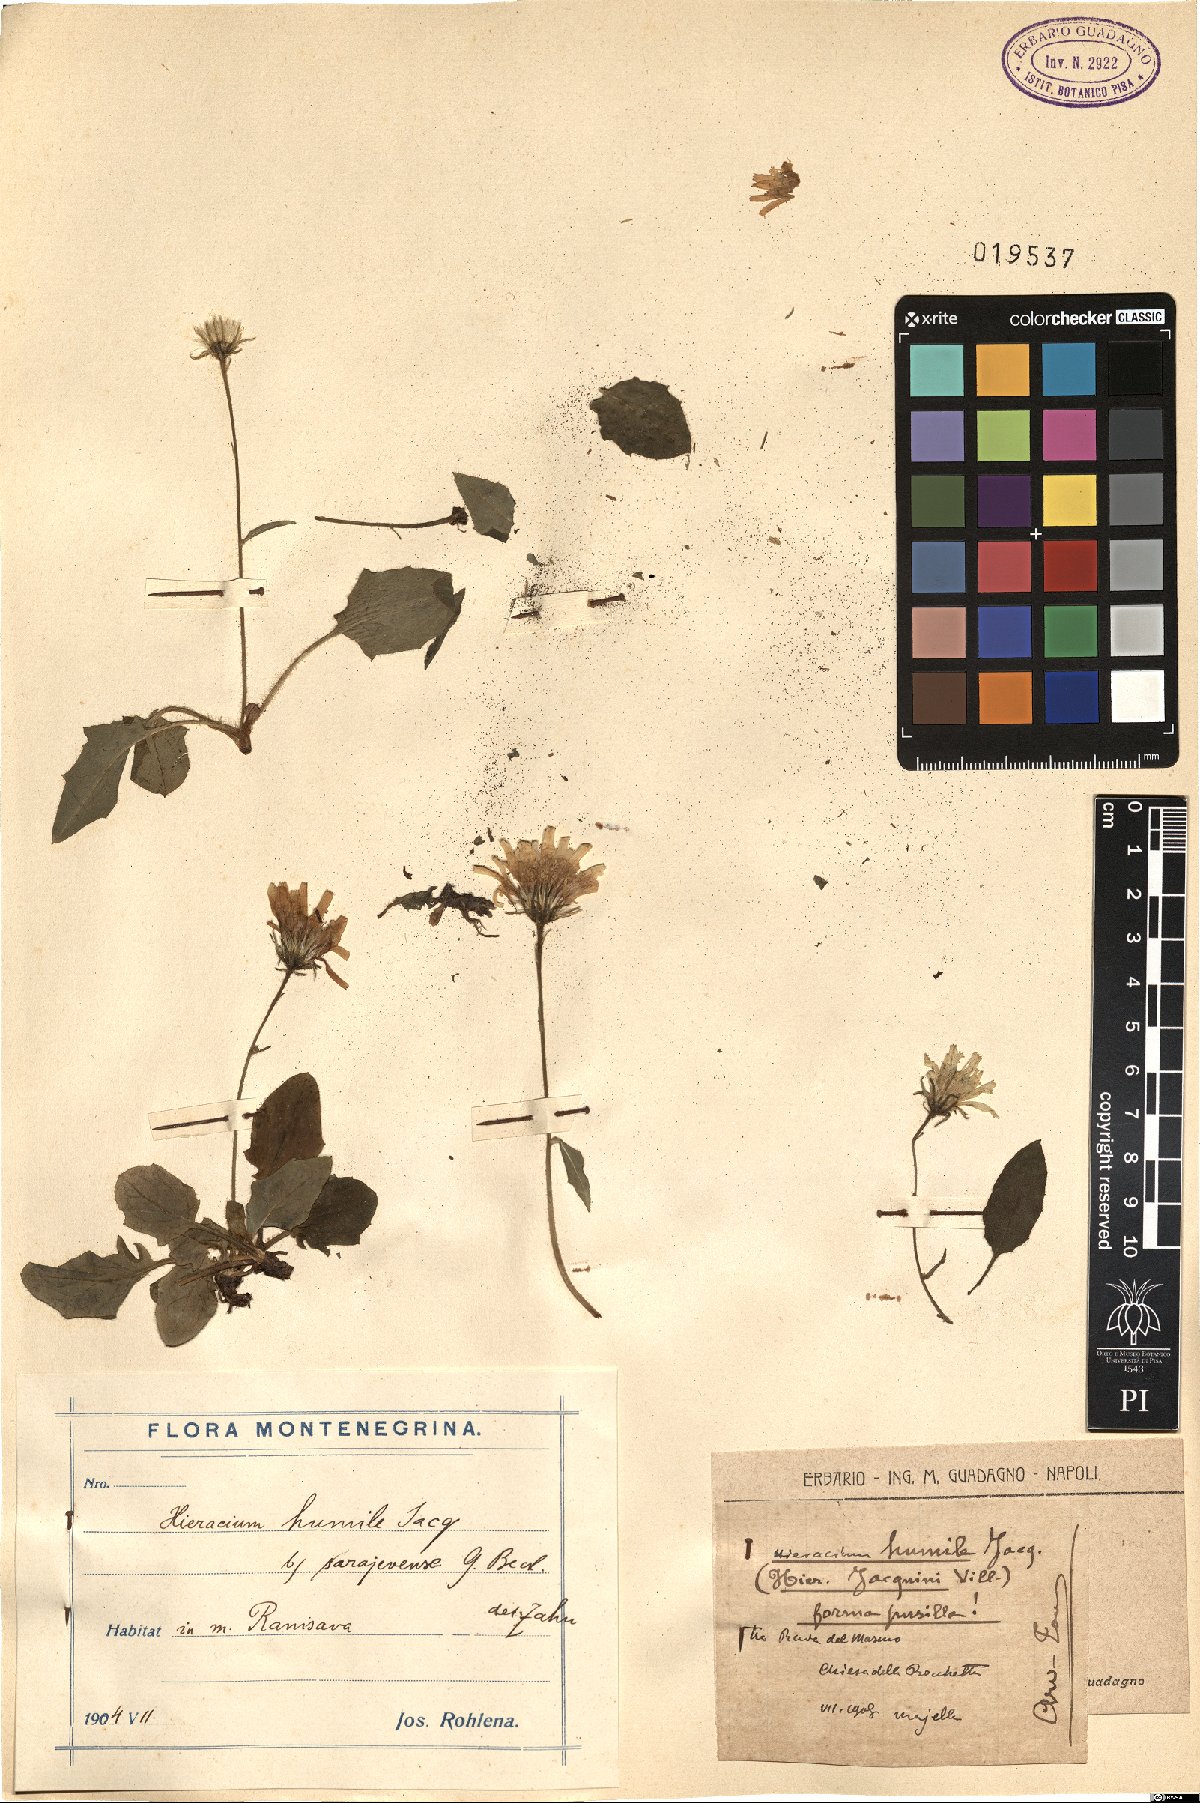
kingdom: Plantae
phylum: Tracheophyta
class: Magnoliopsida
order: Asterales
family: Asteraceae
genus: Hieracium
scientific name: Hieracium humile
